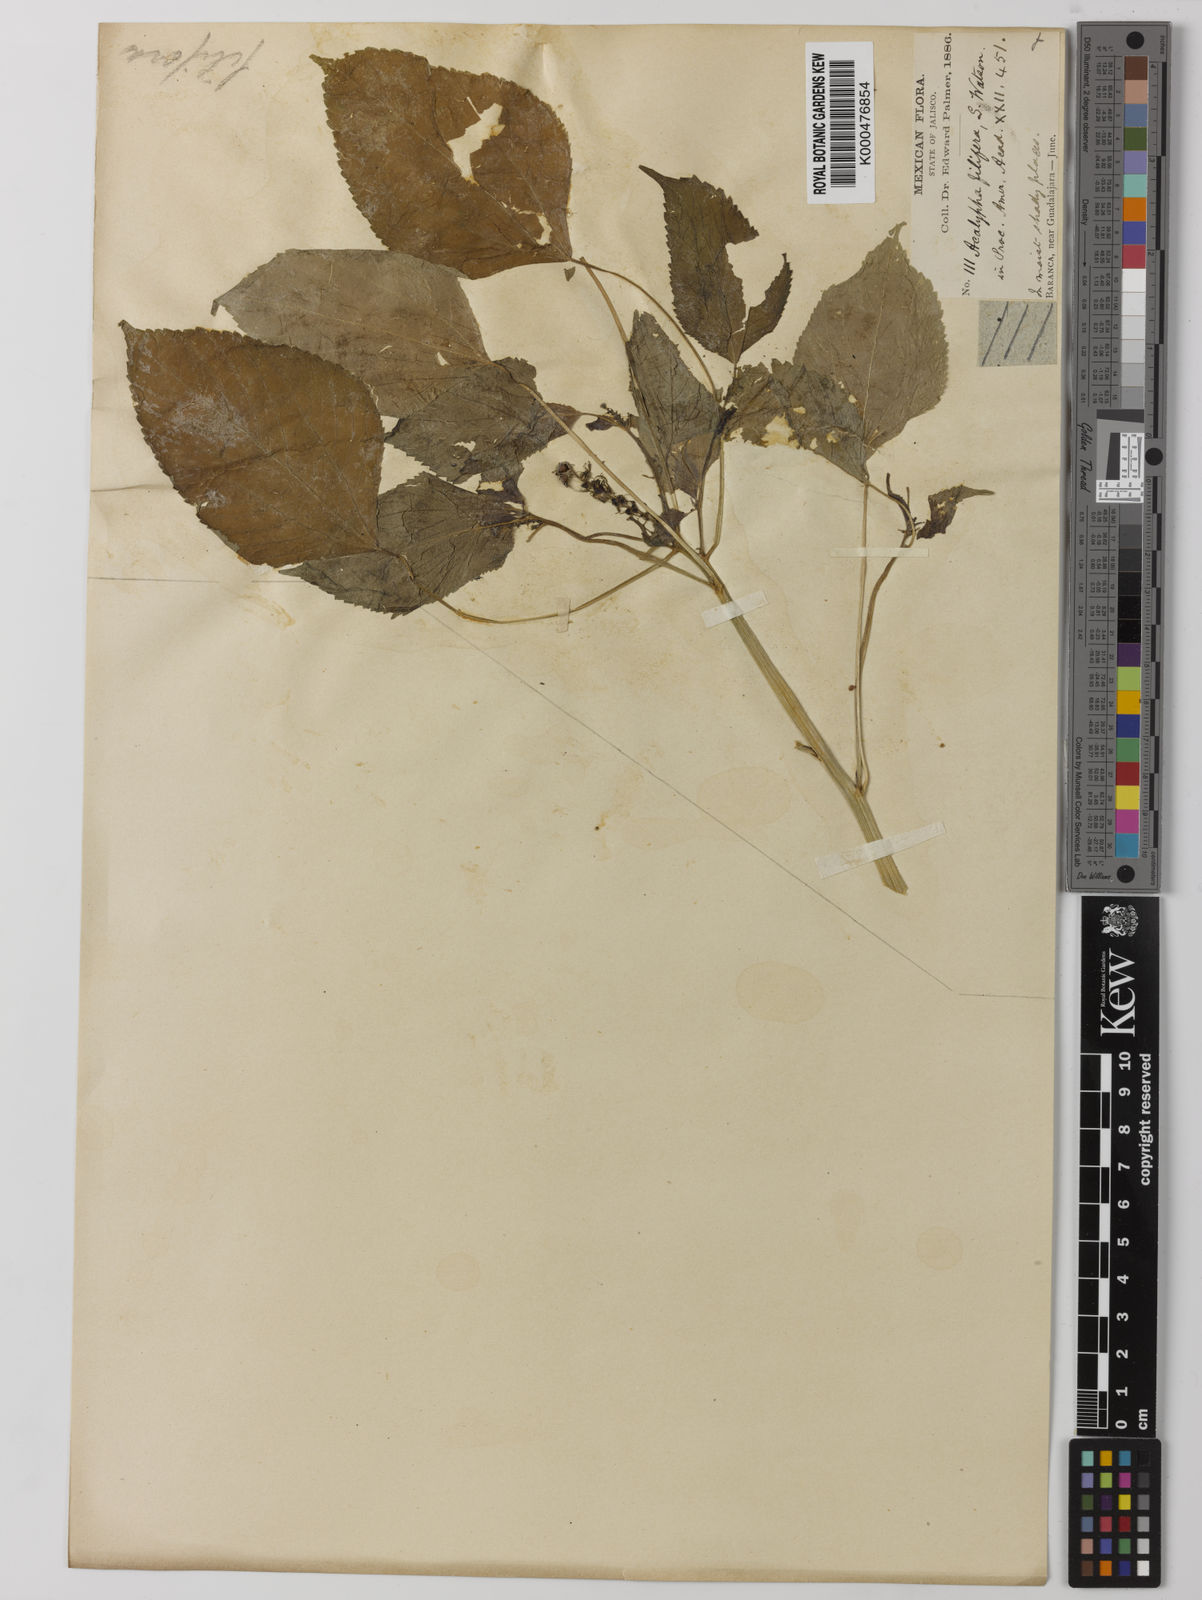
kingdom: Plantae
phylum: Tracheophyta
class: Magnoliopsida
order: Malpighiales
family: Euphorbiaceae
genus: Acalypha
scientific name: Acalypha polystachya
